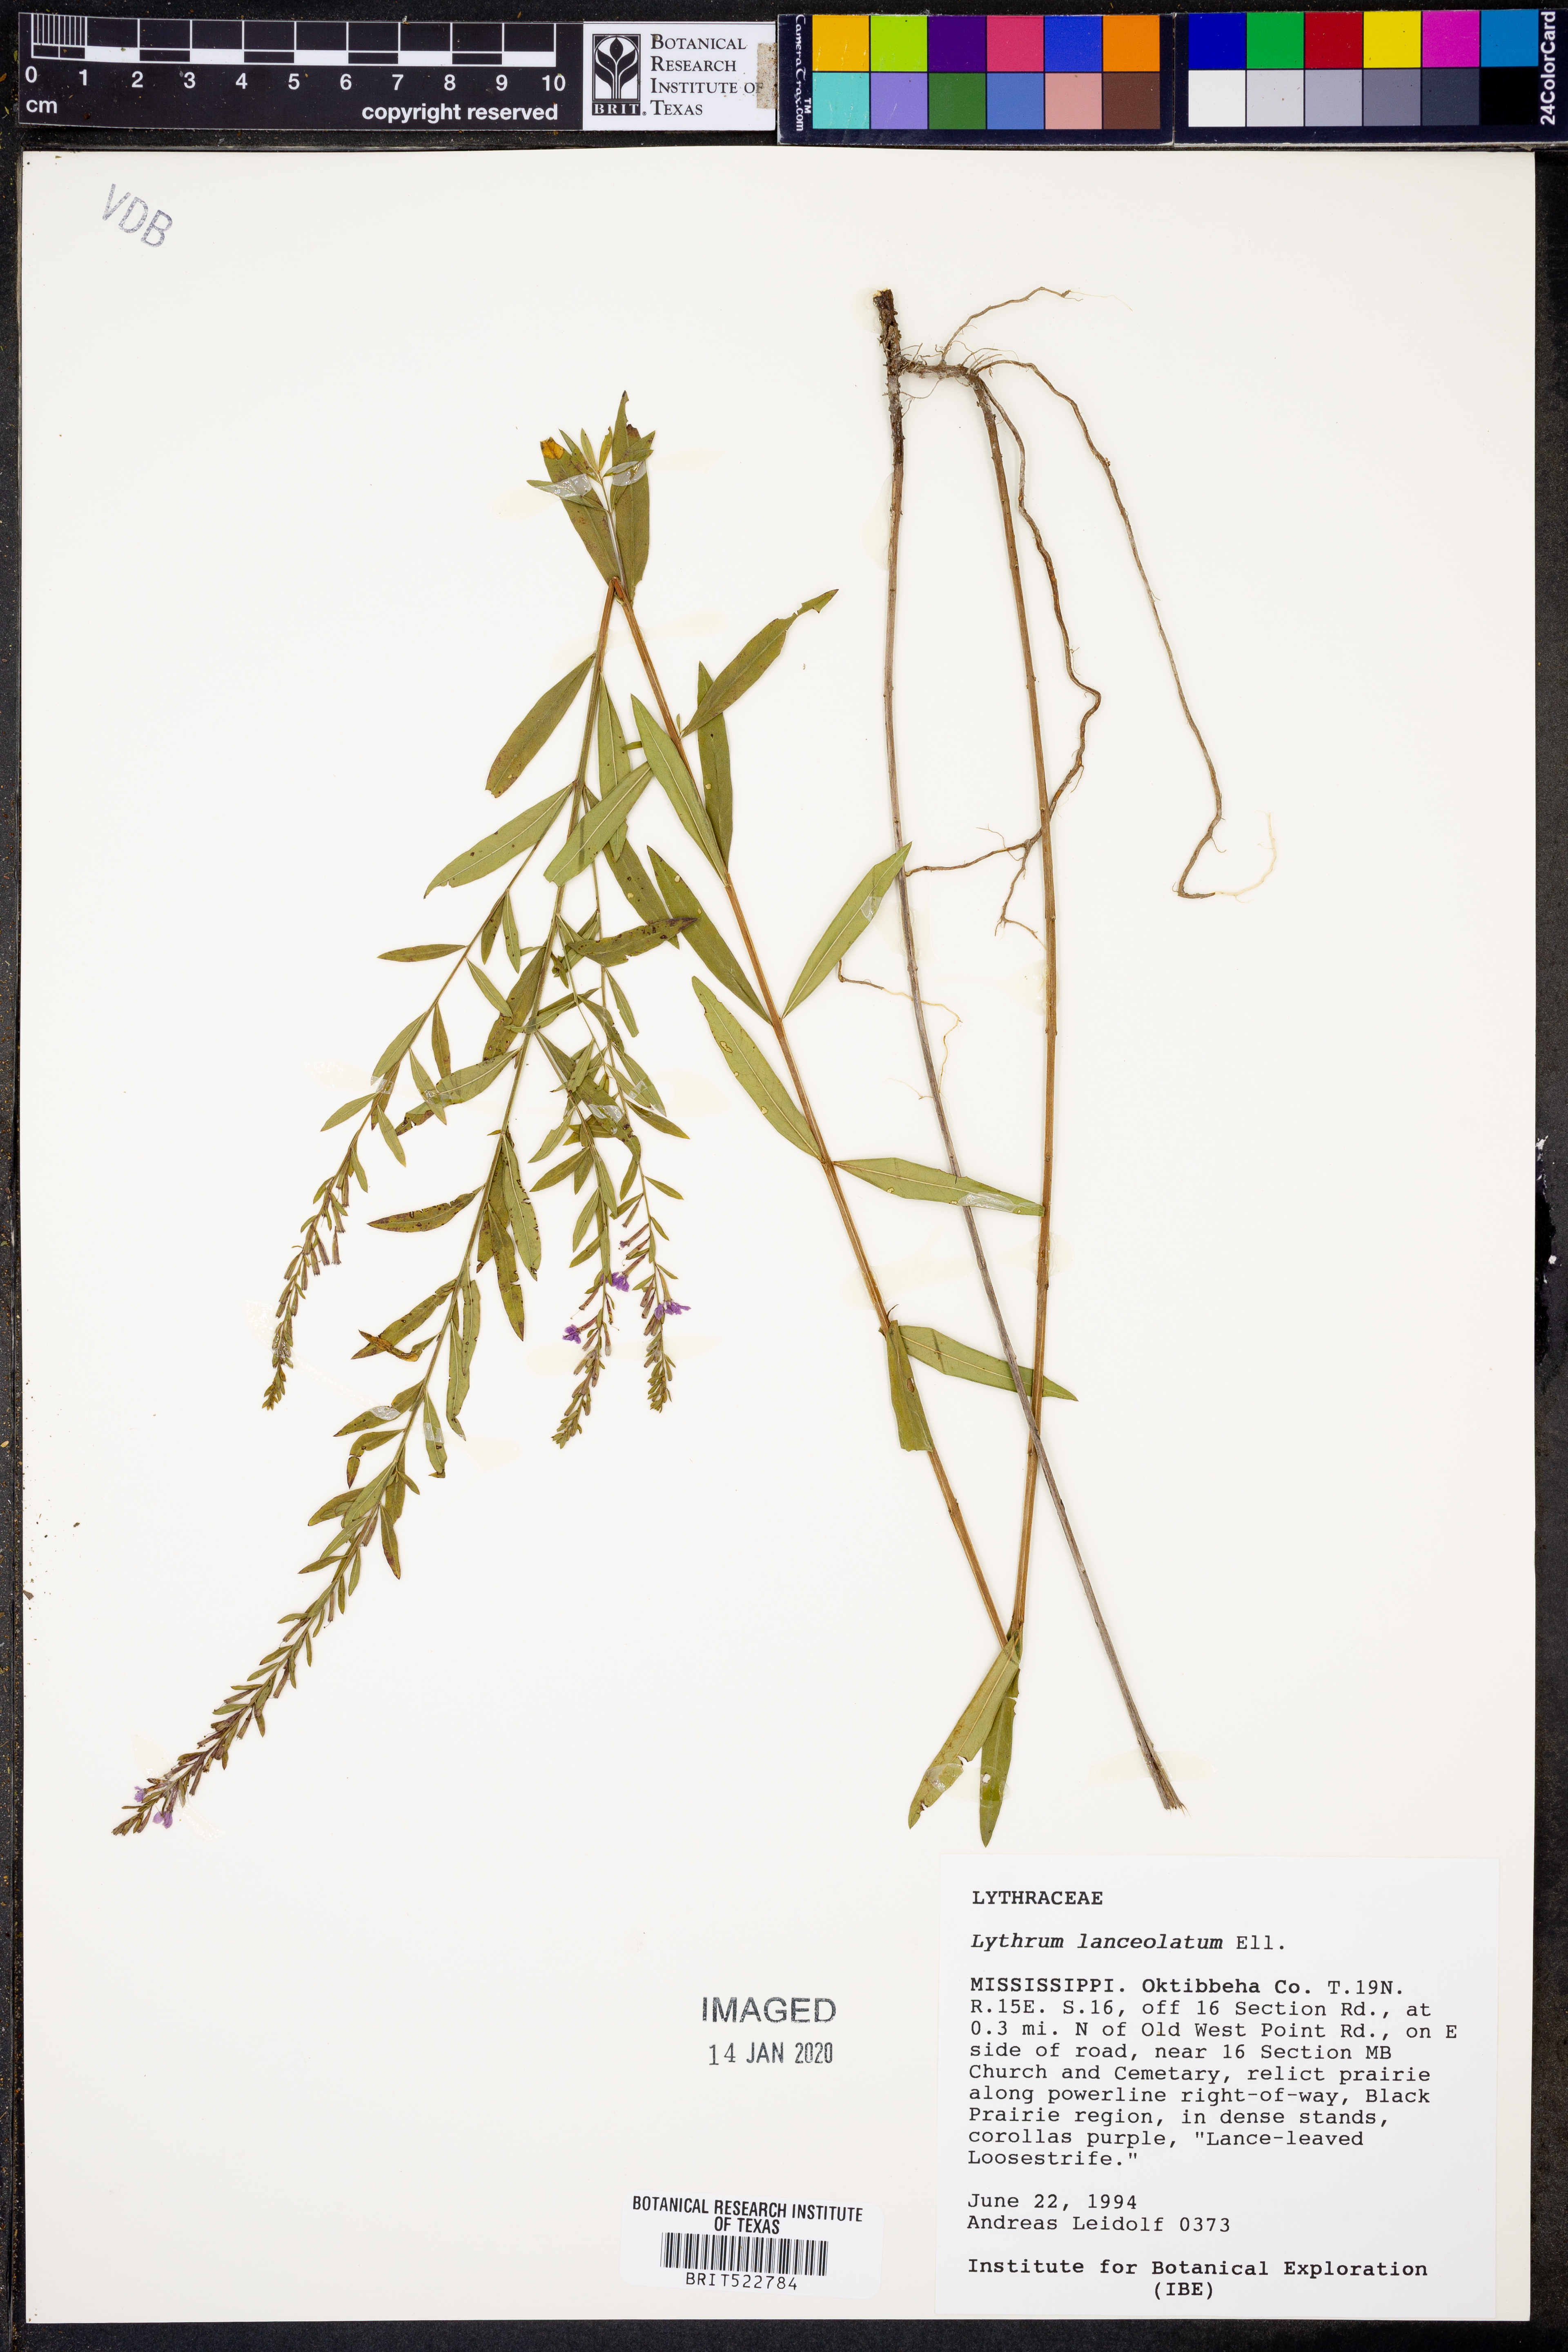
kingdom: Plantae
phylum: Tracheophyta
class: Magnoliopsida
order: Myrtales
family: Lythraceae
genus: Lythrum
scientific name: Lythrum alatum
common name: Winged loosestrife
